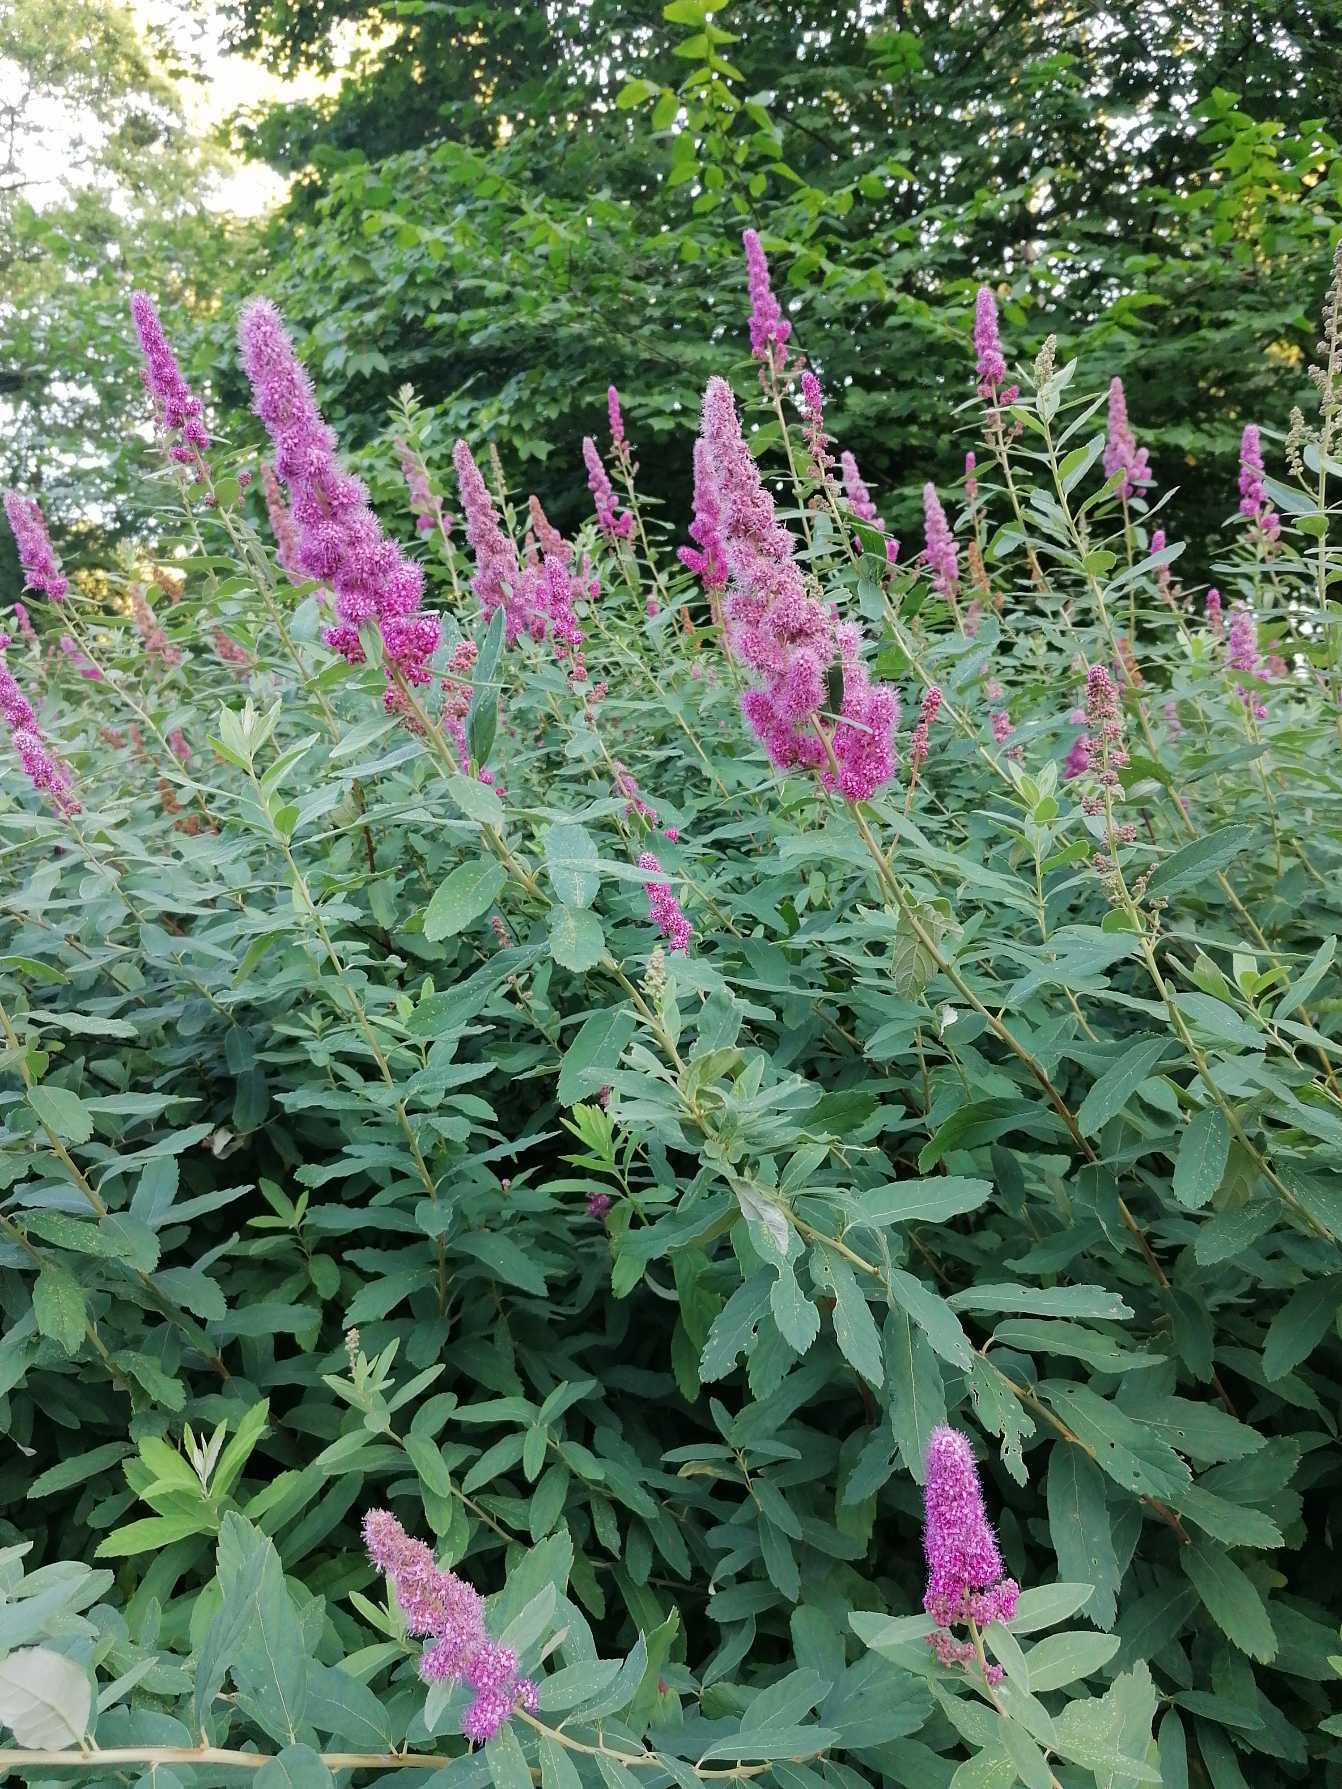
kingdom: Plantae
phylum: Tracheophyta
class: Magnoliopsida
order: Rosales
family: Rosaceae
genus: Spiraea
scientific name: Spiraea billardii
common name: Klase-spiræa
